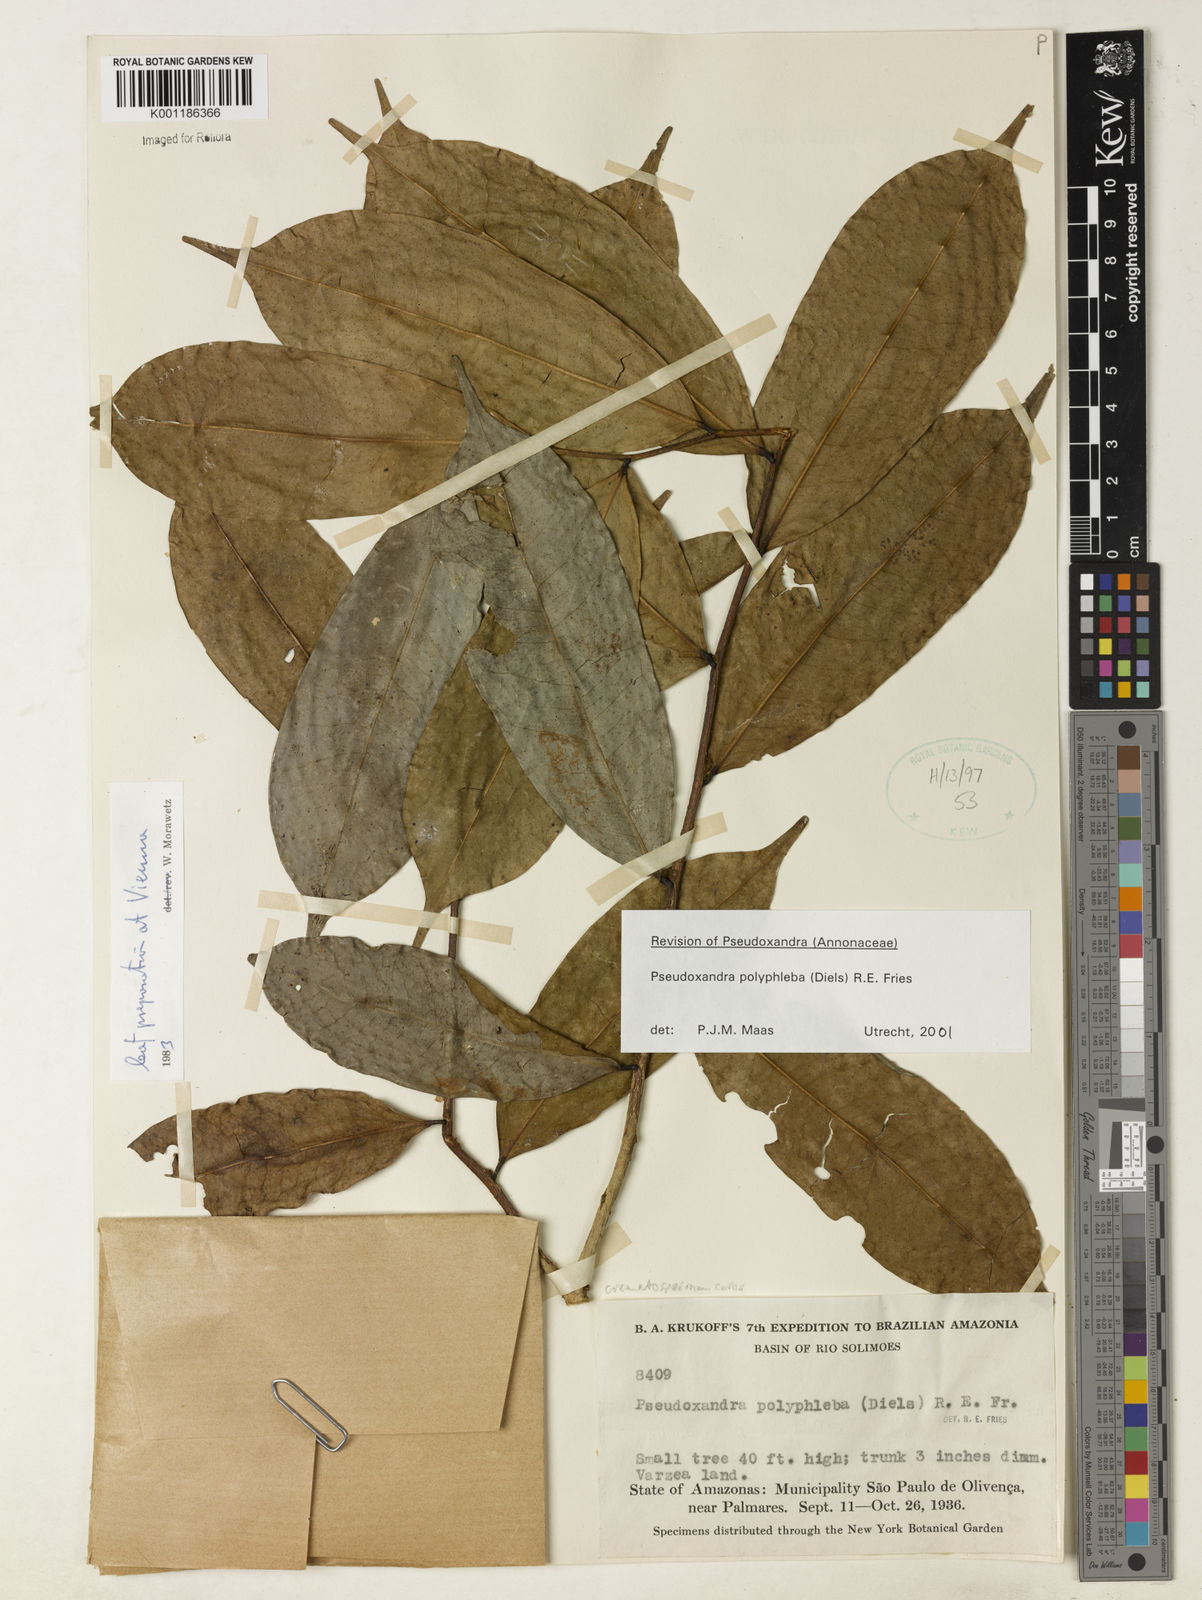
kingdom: Plantae
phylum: Tracheophyta
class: Magnoliopsida
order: Magnoliales
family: Annonaceae
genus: Pseudoxandra
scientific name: Pseudoxandra polyphleba
